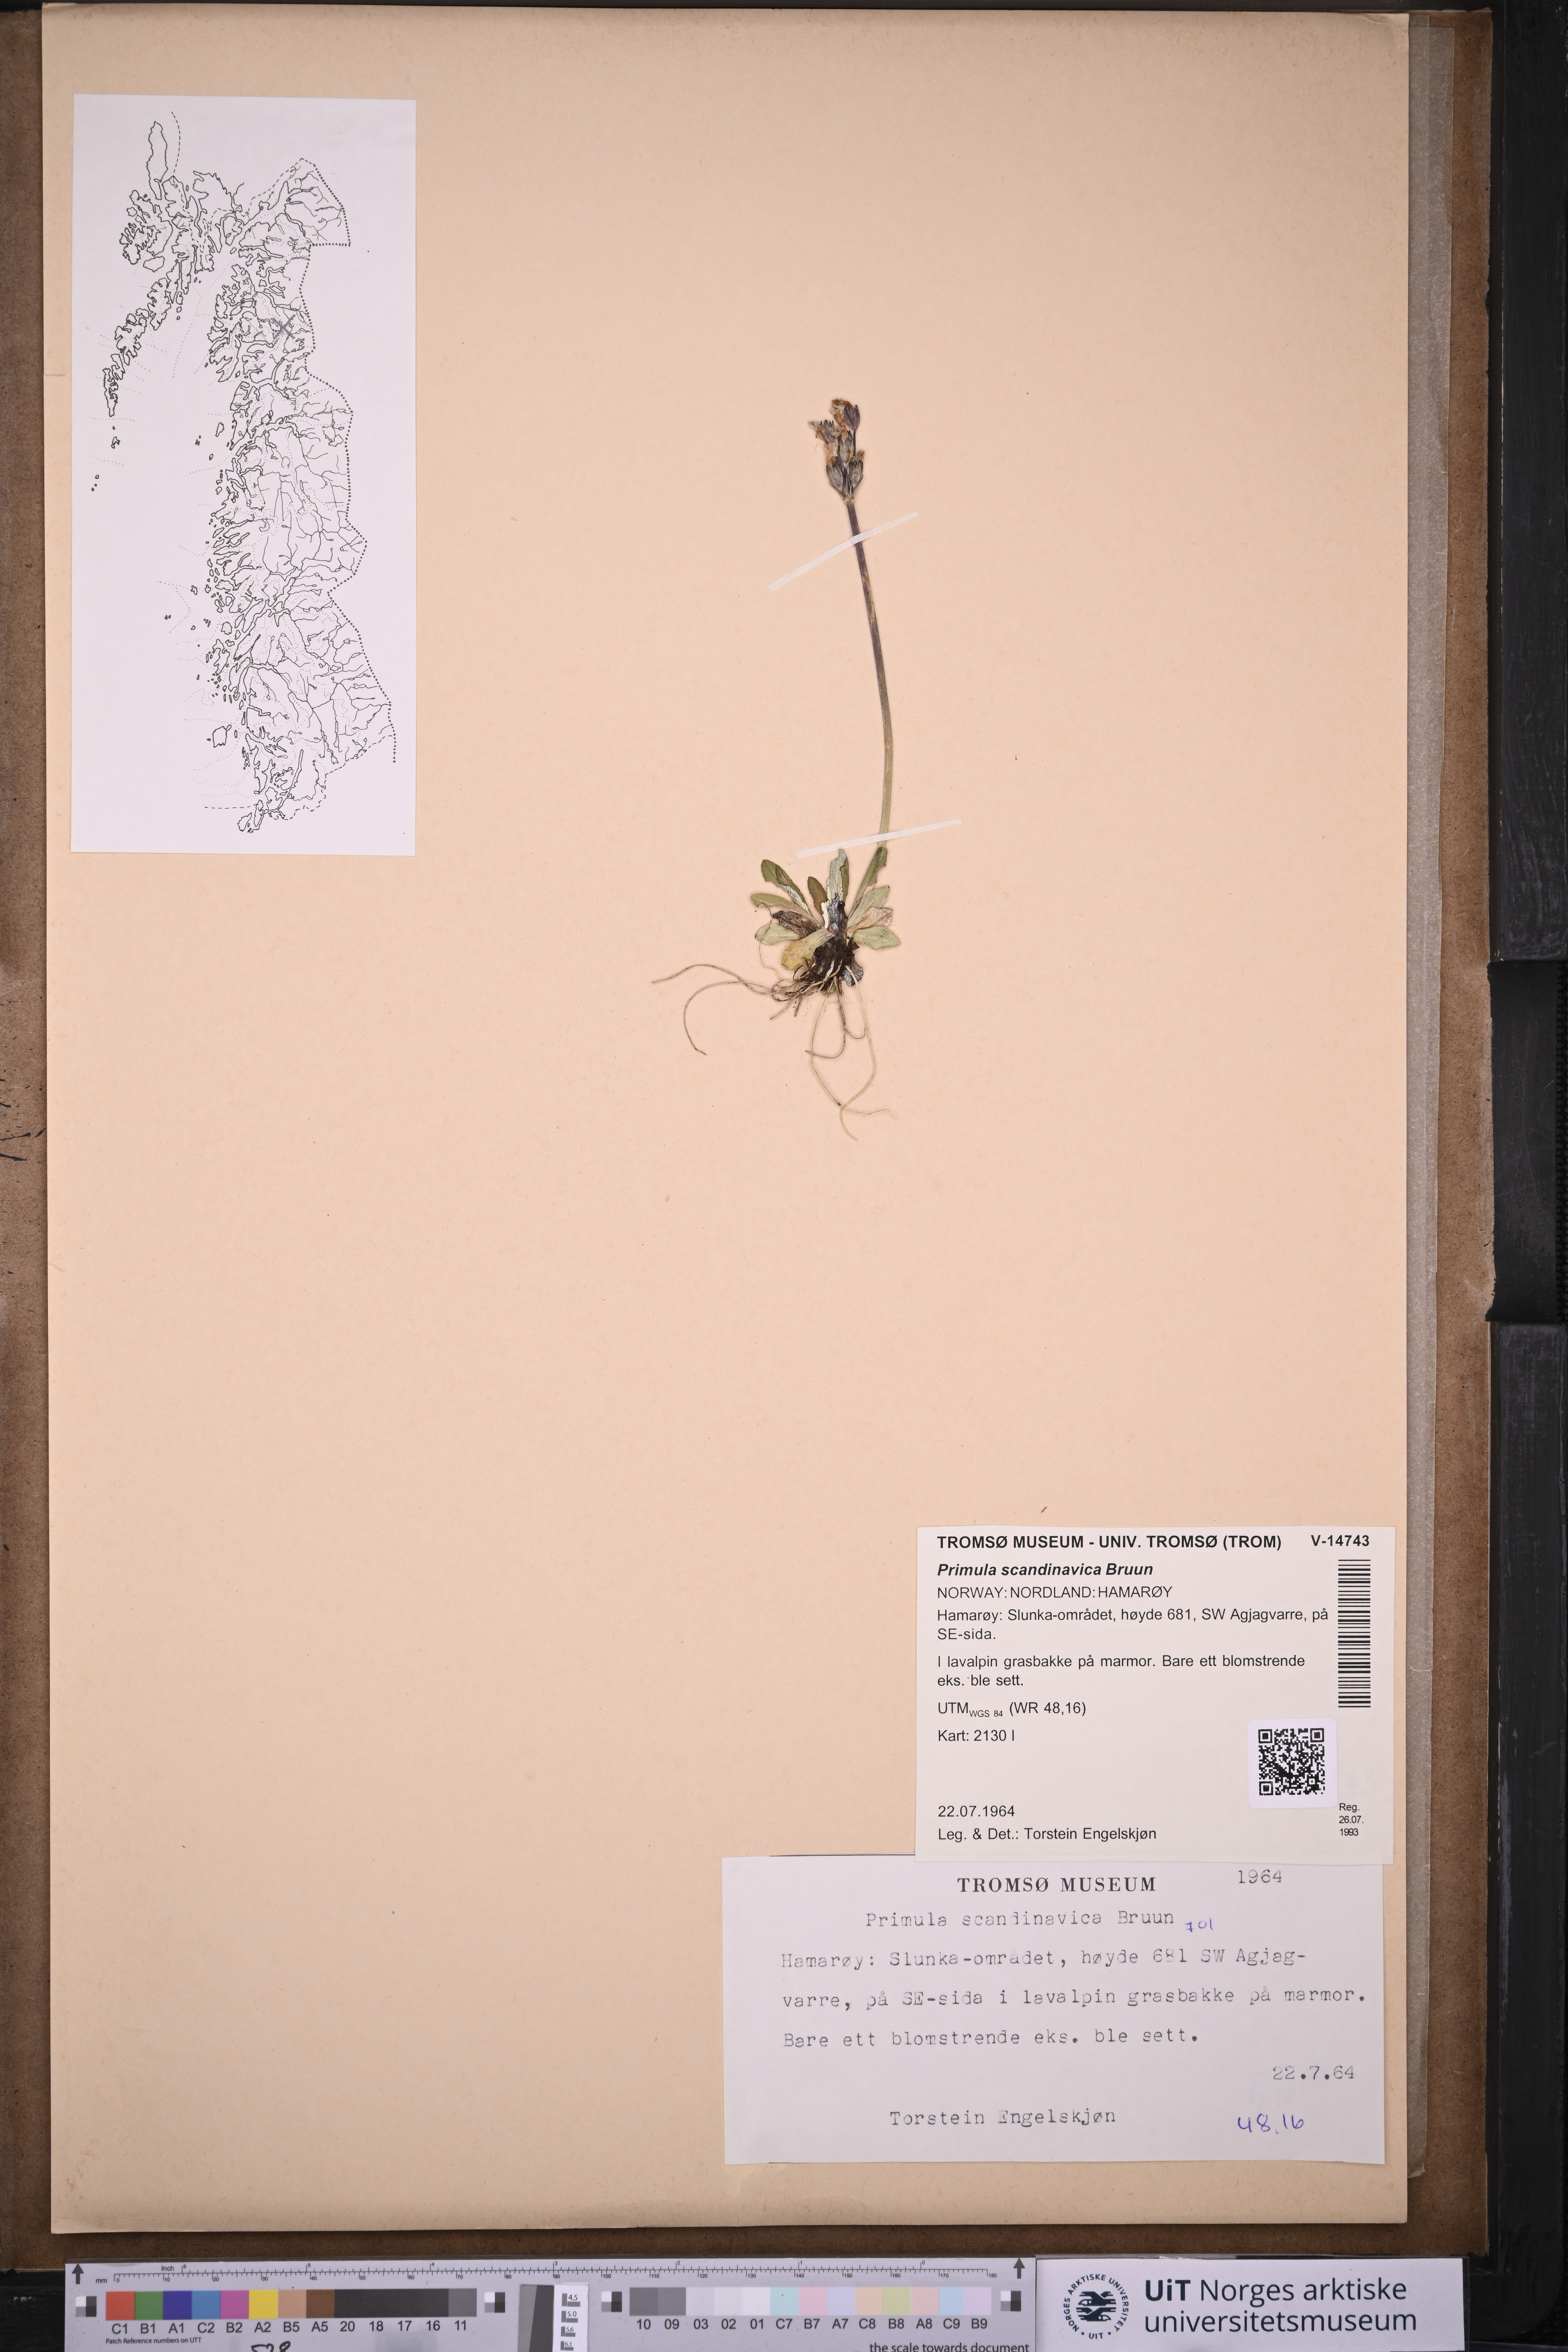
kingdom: Plantae
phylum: Tracheophyta
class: Magnoliopsida
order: Ericales
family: Primulaceae
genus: Primula
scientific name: Primula scandinavica
